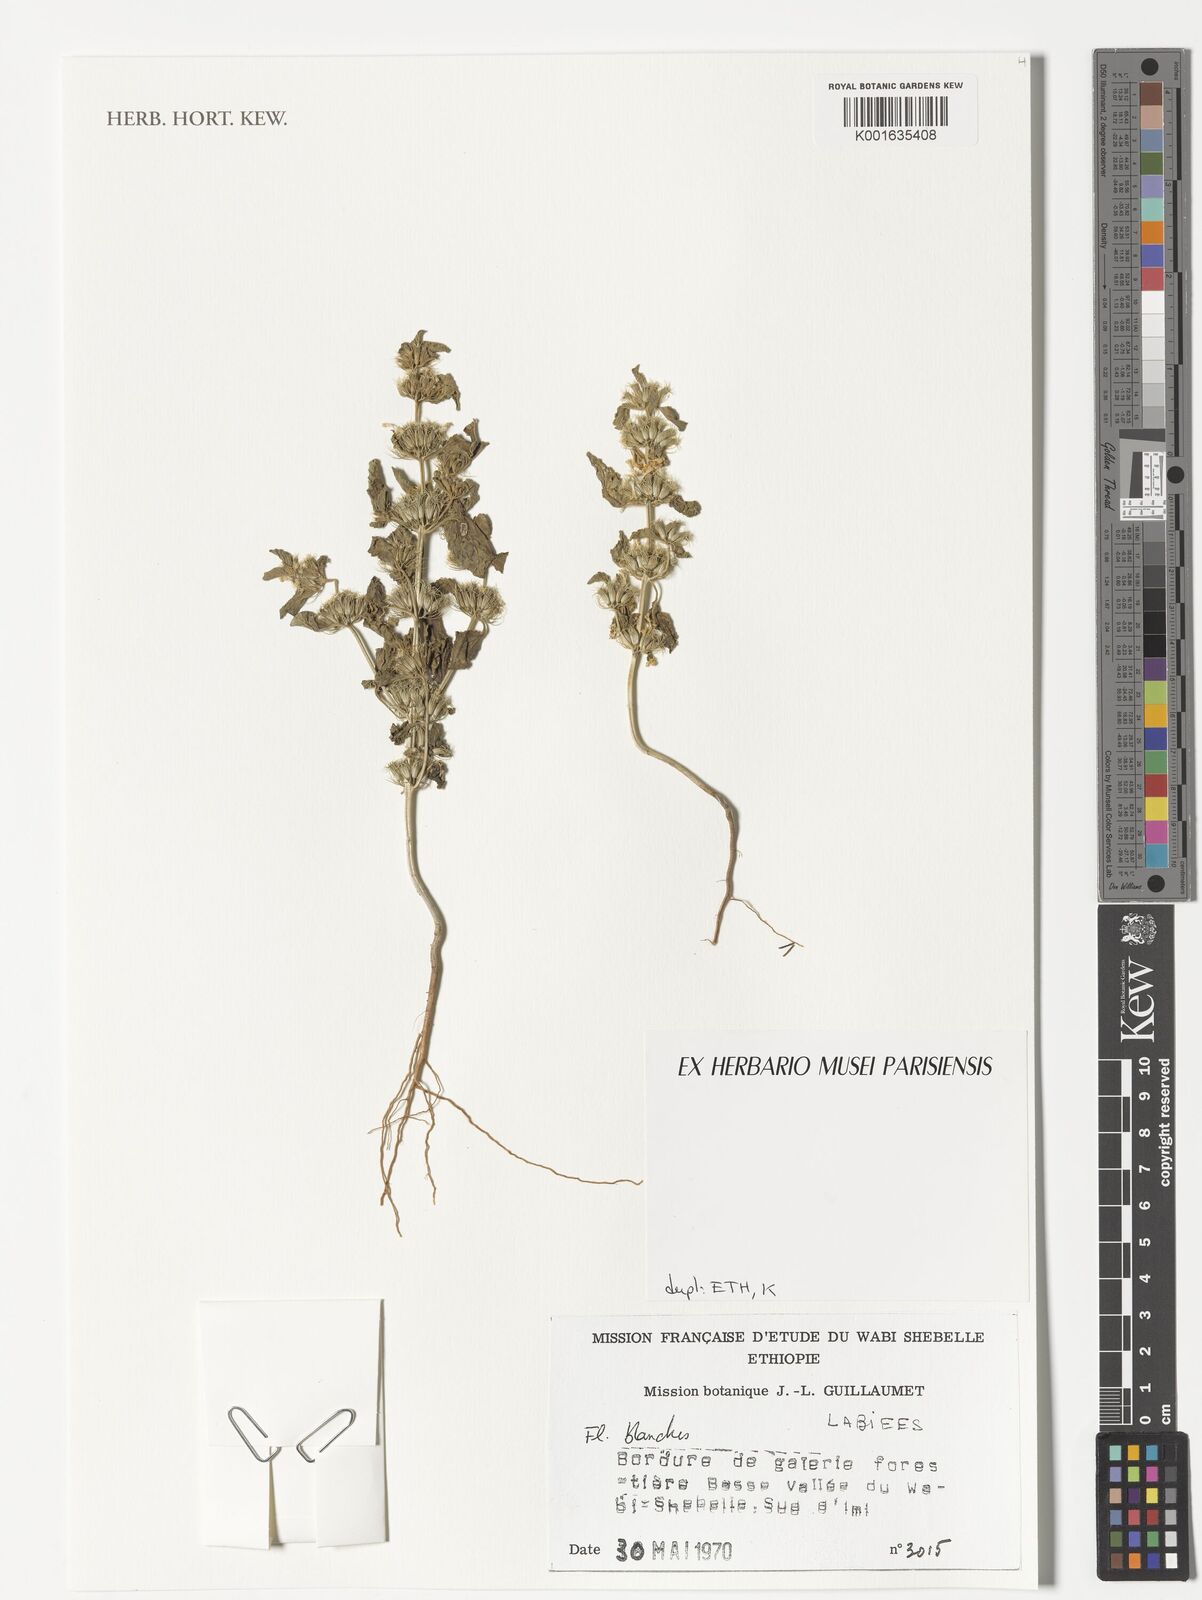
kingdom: Plantae
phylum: Tracheophyta
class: Magnoliopsida
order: Lamiales
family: Lamiaceae
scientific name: Lamiaceae
